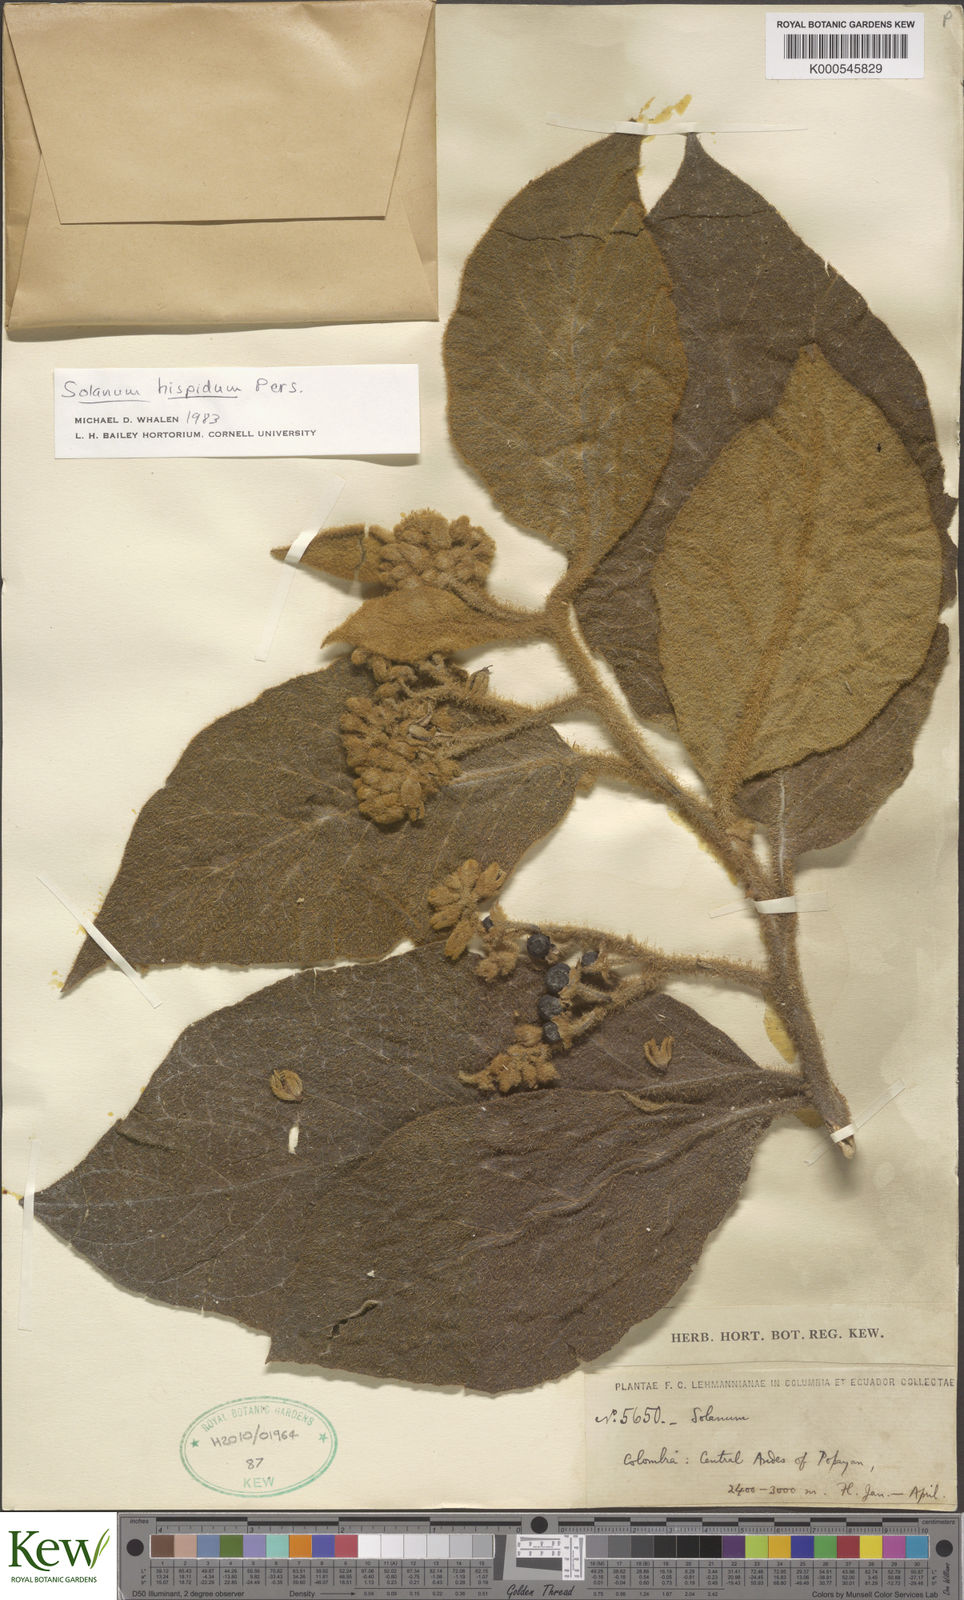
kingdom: Plantae
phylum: Tracheophyta
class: Magnoliopsida
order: Solanales
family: Solanaceae
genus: Solanum
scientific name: Solanum asperolanatum
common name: Devil's-fig
